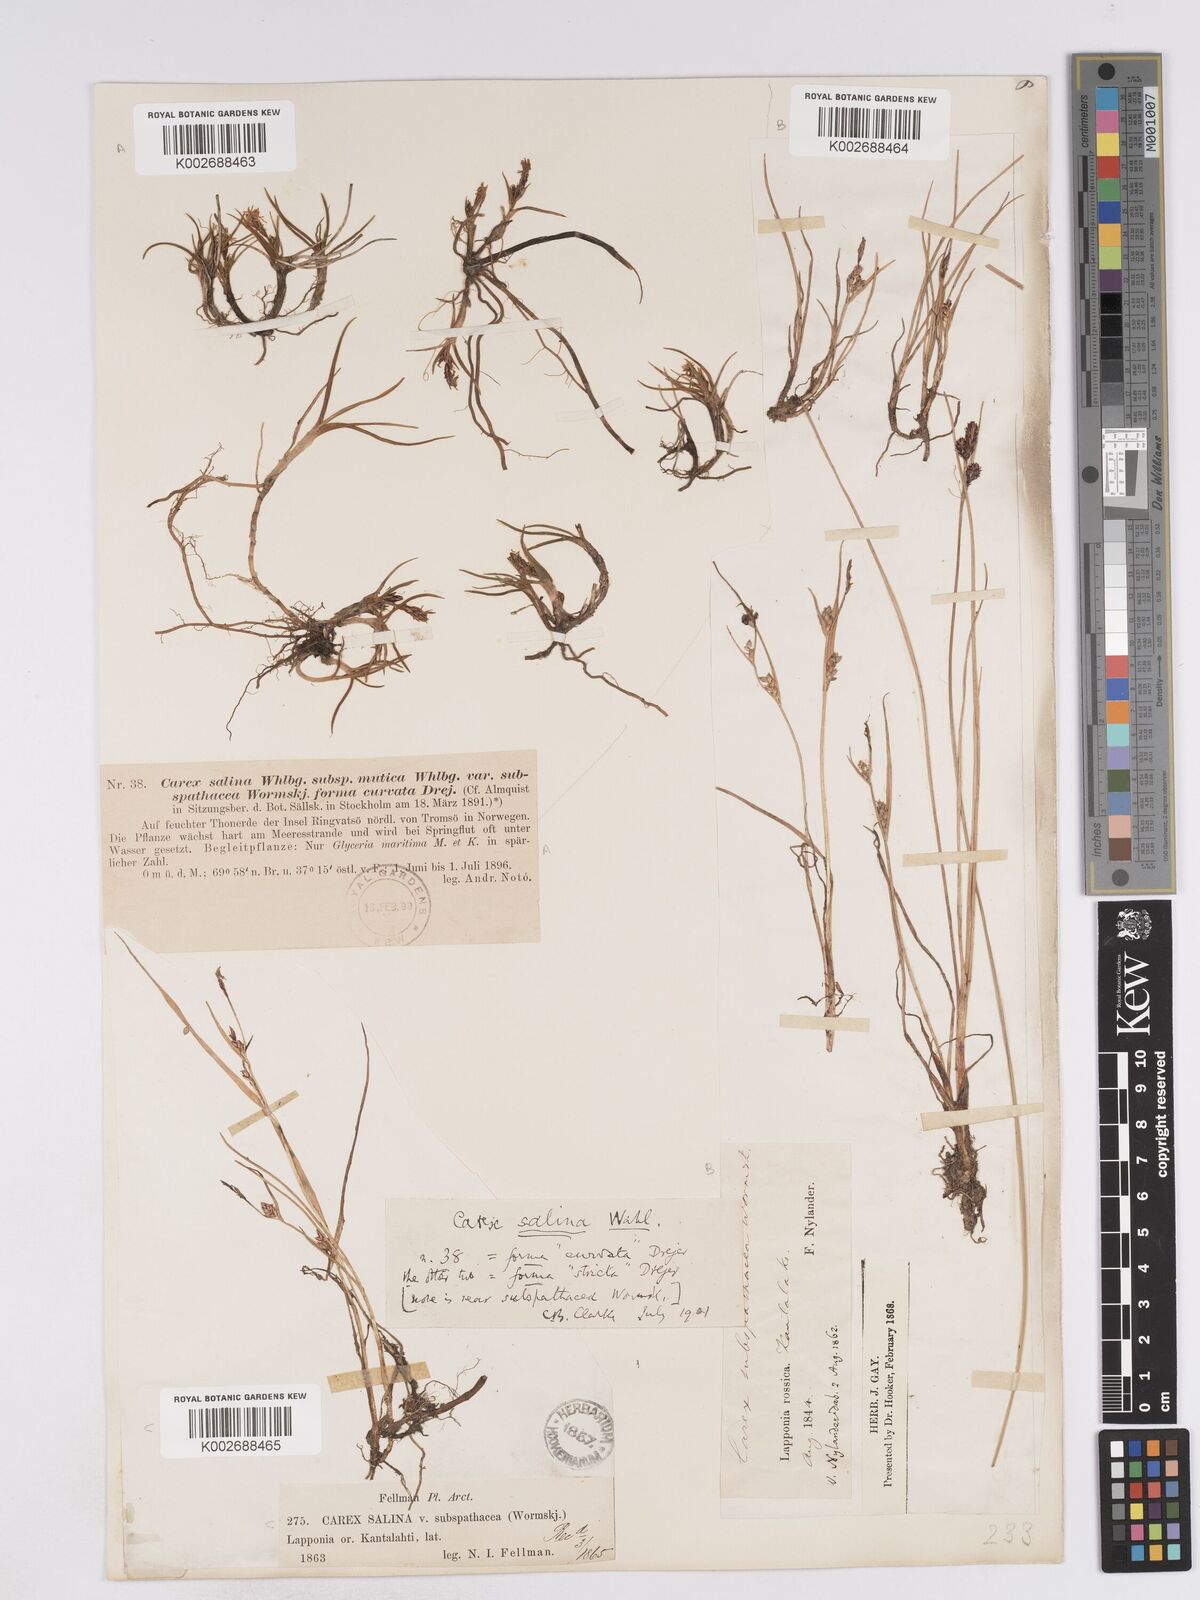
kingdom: Plantae
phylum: Tracheophyta
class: Liliopsida
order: Poales
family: Cyperaceae
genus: Carex
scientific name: Carex salina
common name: Saltmarsh sedge
